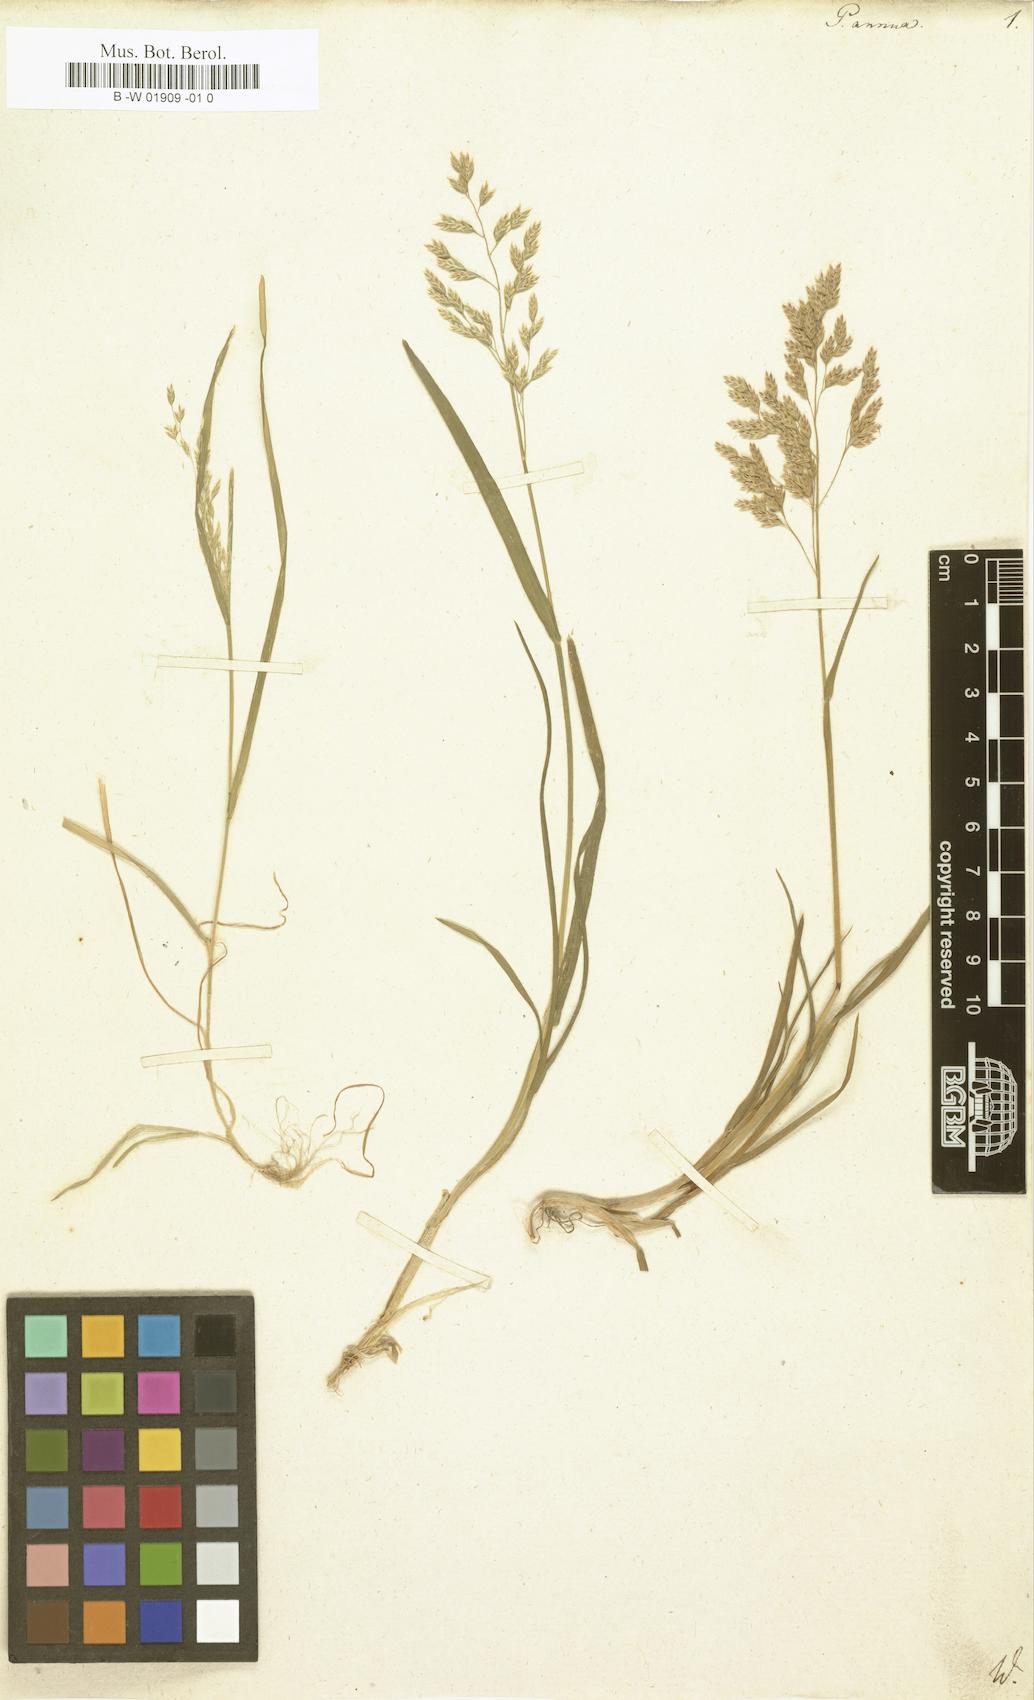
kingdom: Plantae
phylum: Tracheophyta
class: Liliopsida
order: Poales
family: Poaceae
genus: Poa
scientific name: Poa annua
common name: Annual bluegrass
